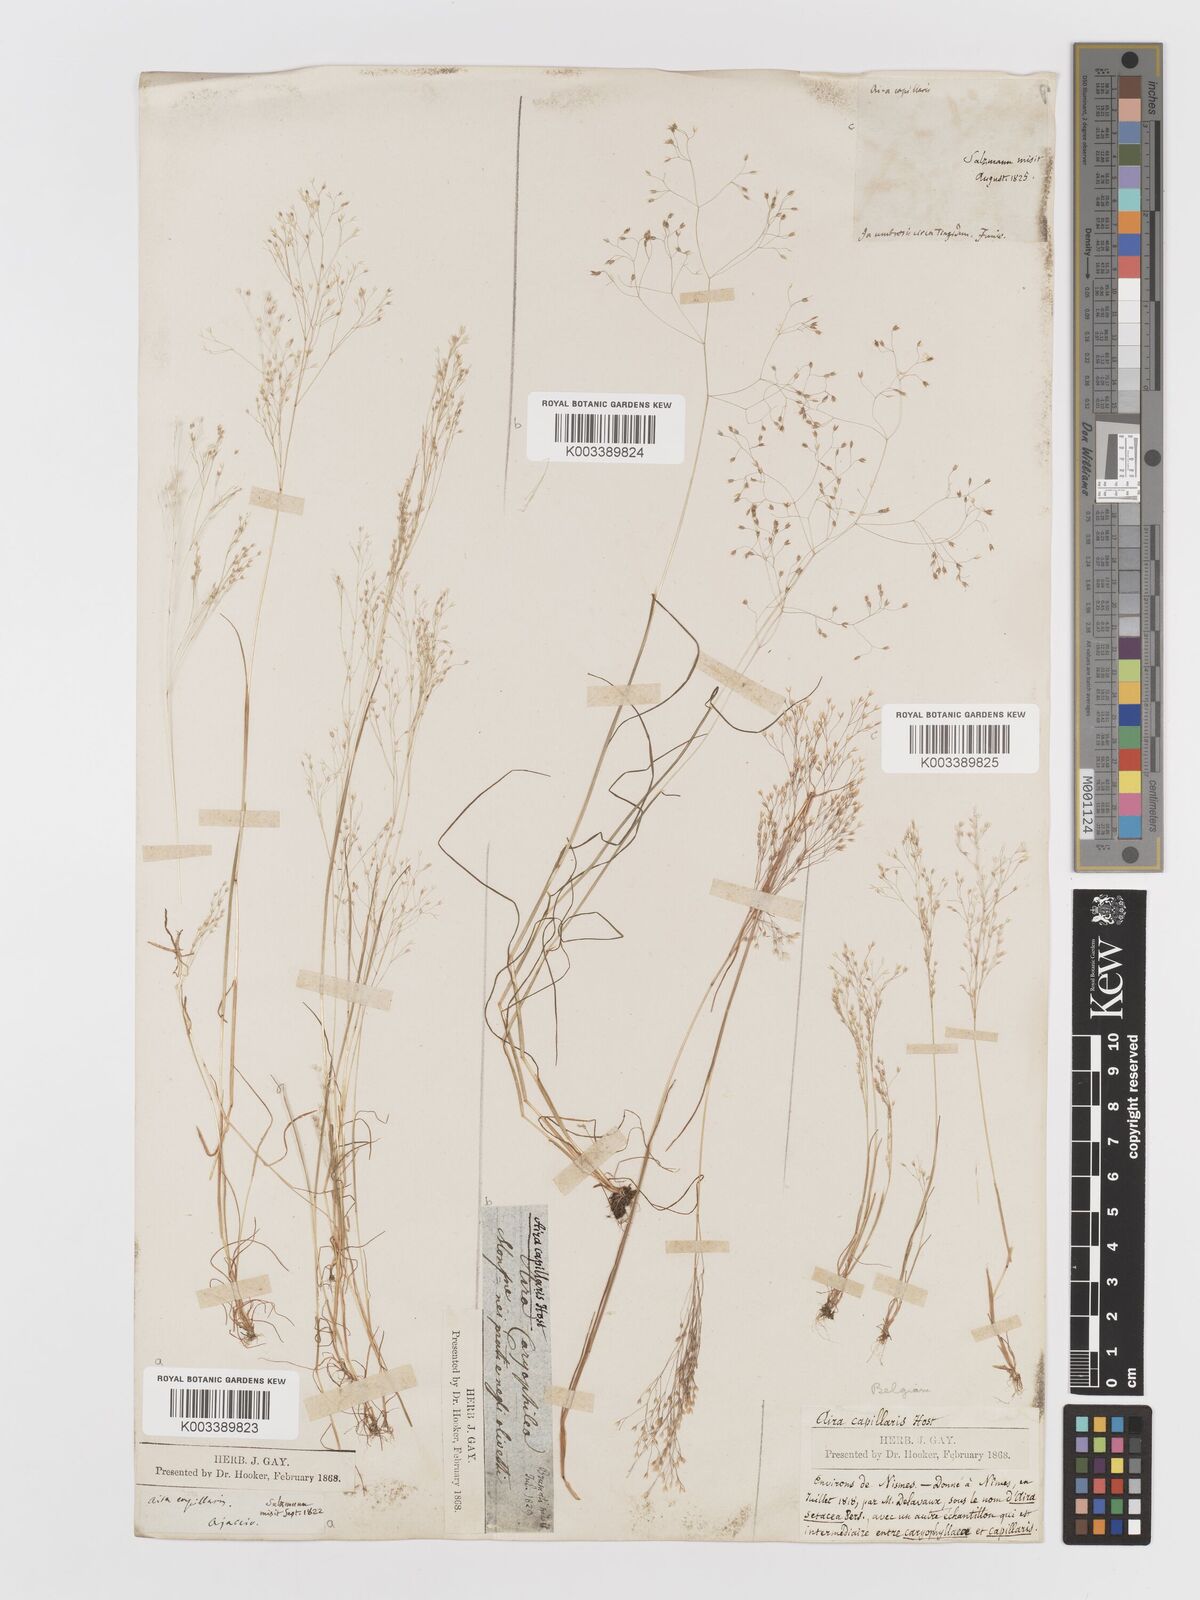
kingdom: Plantae
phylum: Tracheophyta
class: Liliopsida
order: Poales
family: Poaceae
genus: Aira
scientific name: Aira elegans
